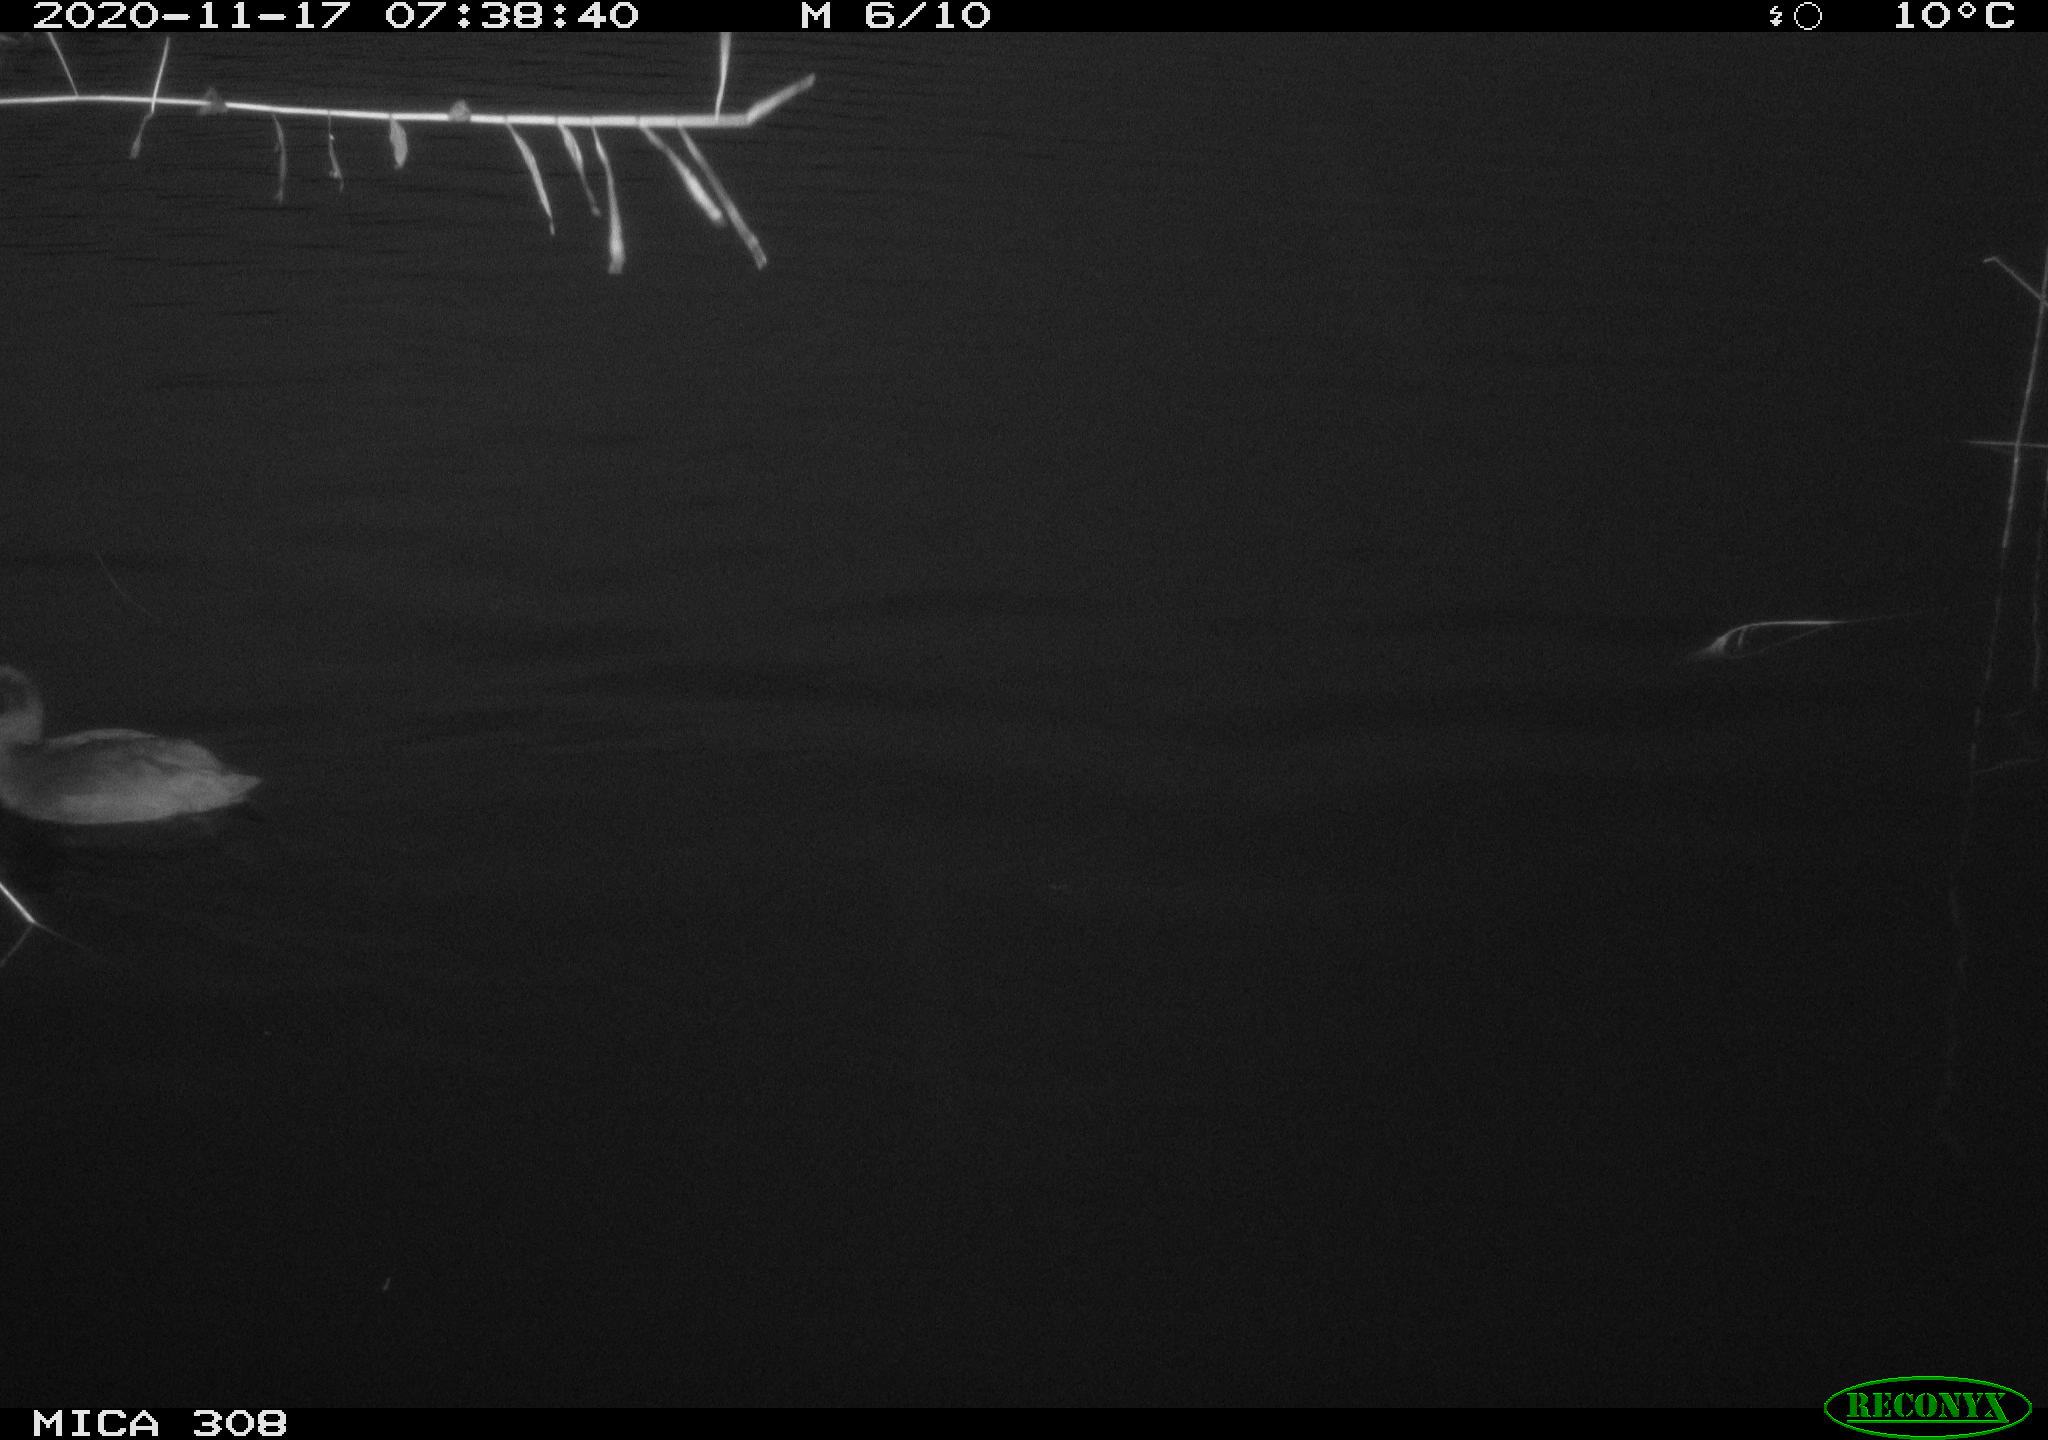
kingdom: Animalia
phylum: Chordata
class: Aves
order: Anseriformes
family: Anatidae
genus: Anas
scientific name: Anas platyrhynchos
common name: Mallard
